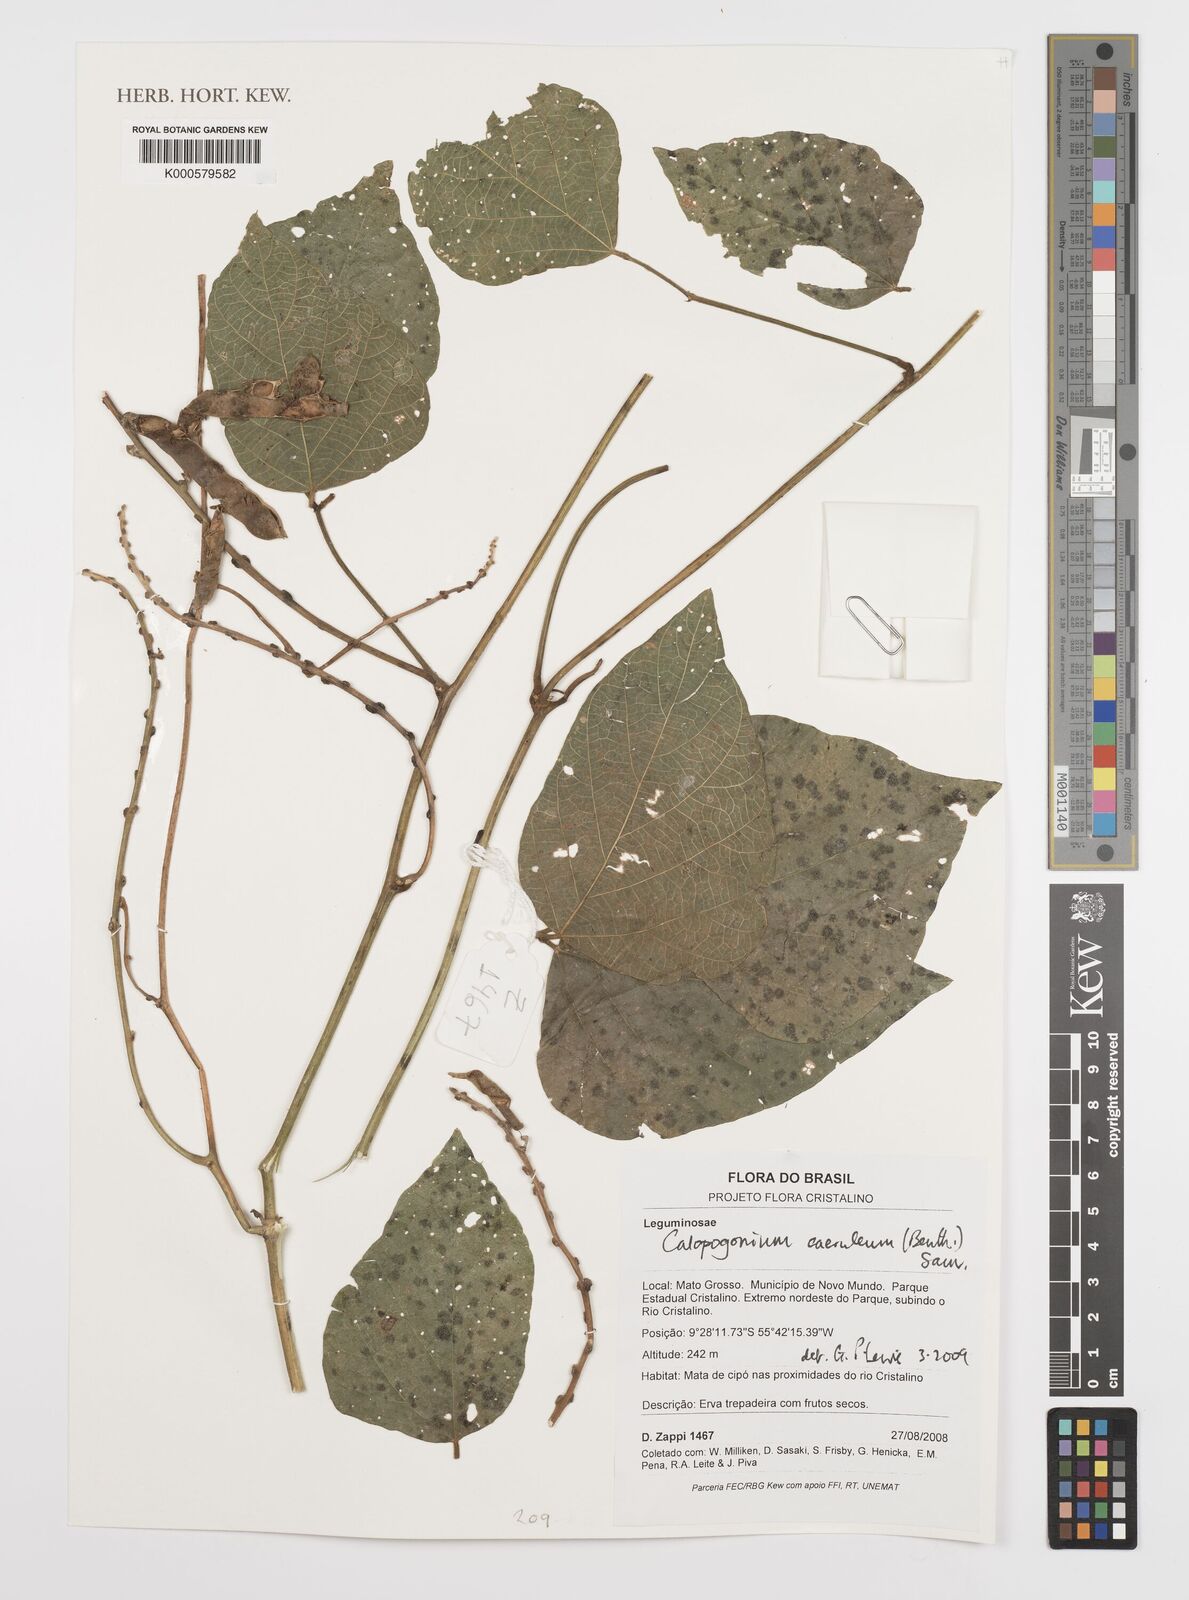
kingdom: Plantae
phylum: Tracheophyta
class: Magnoliopsida
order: Fabales
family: Fabaceae
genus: Calopogonium
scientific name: Calopogonium
